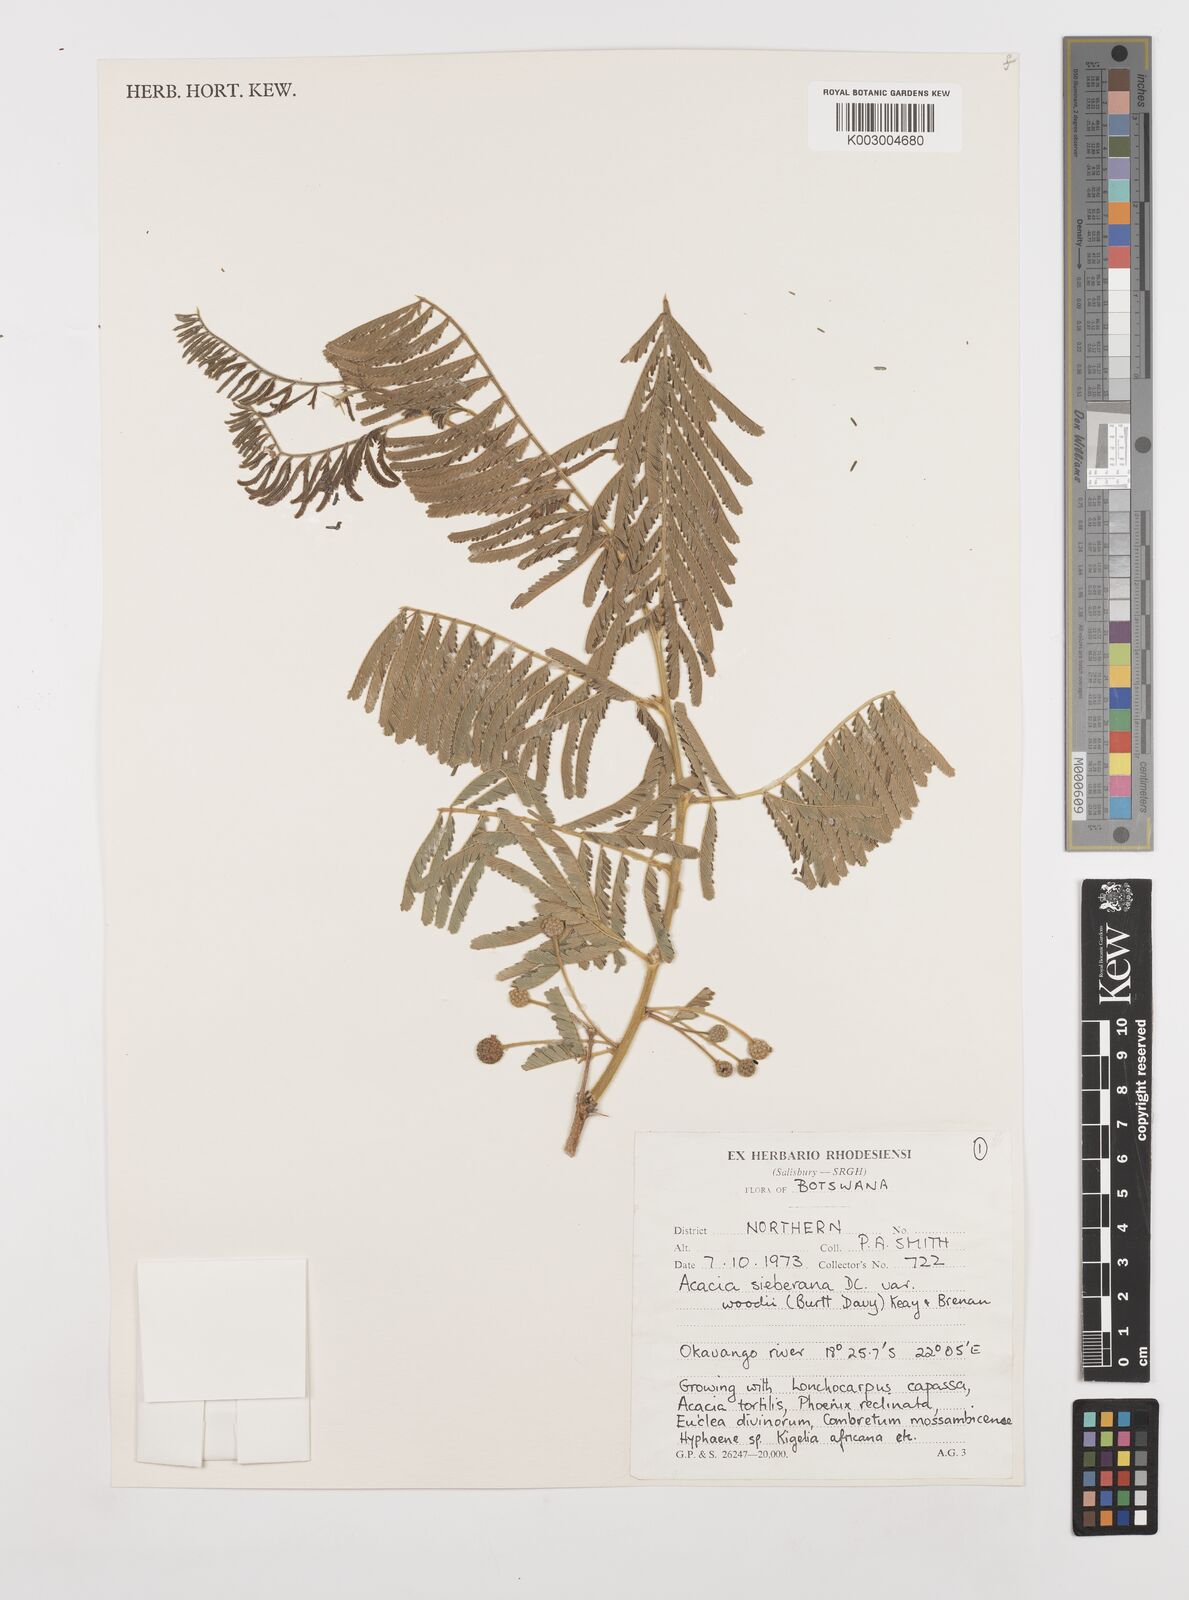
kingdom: Plantae
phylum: Tracheophyta
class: Magnoliopsida
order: Fabales
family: Fabaceae
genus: Vachellia
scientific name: Vachellia sieberiana
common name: Flat-topped thorn
